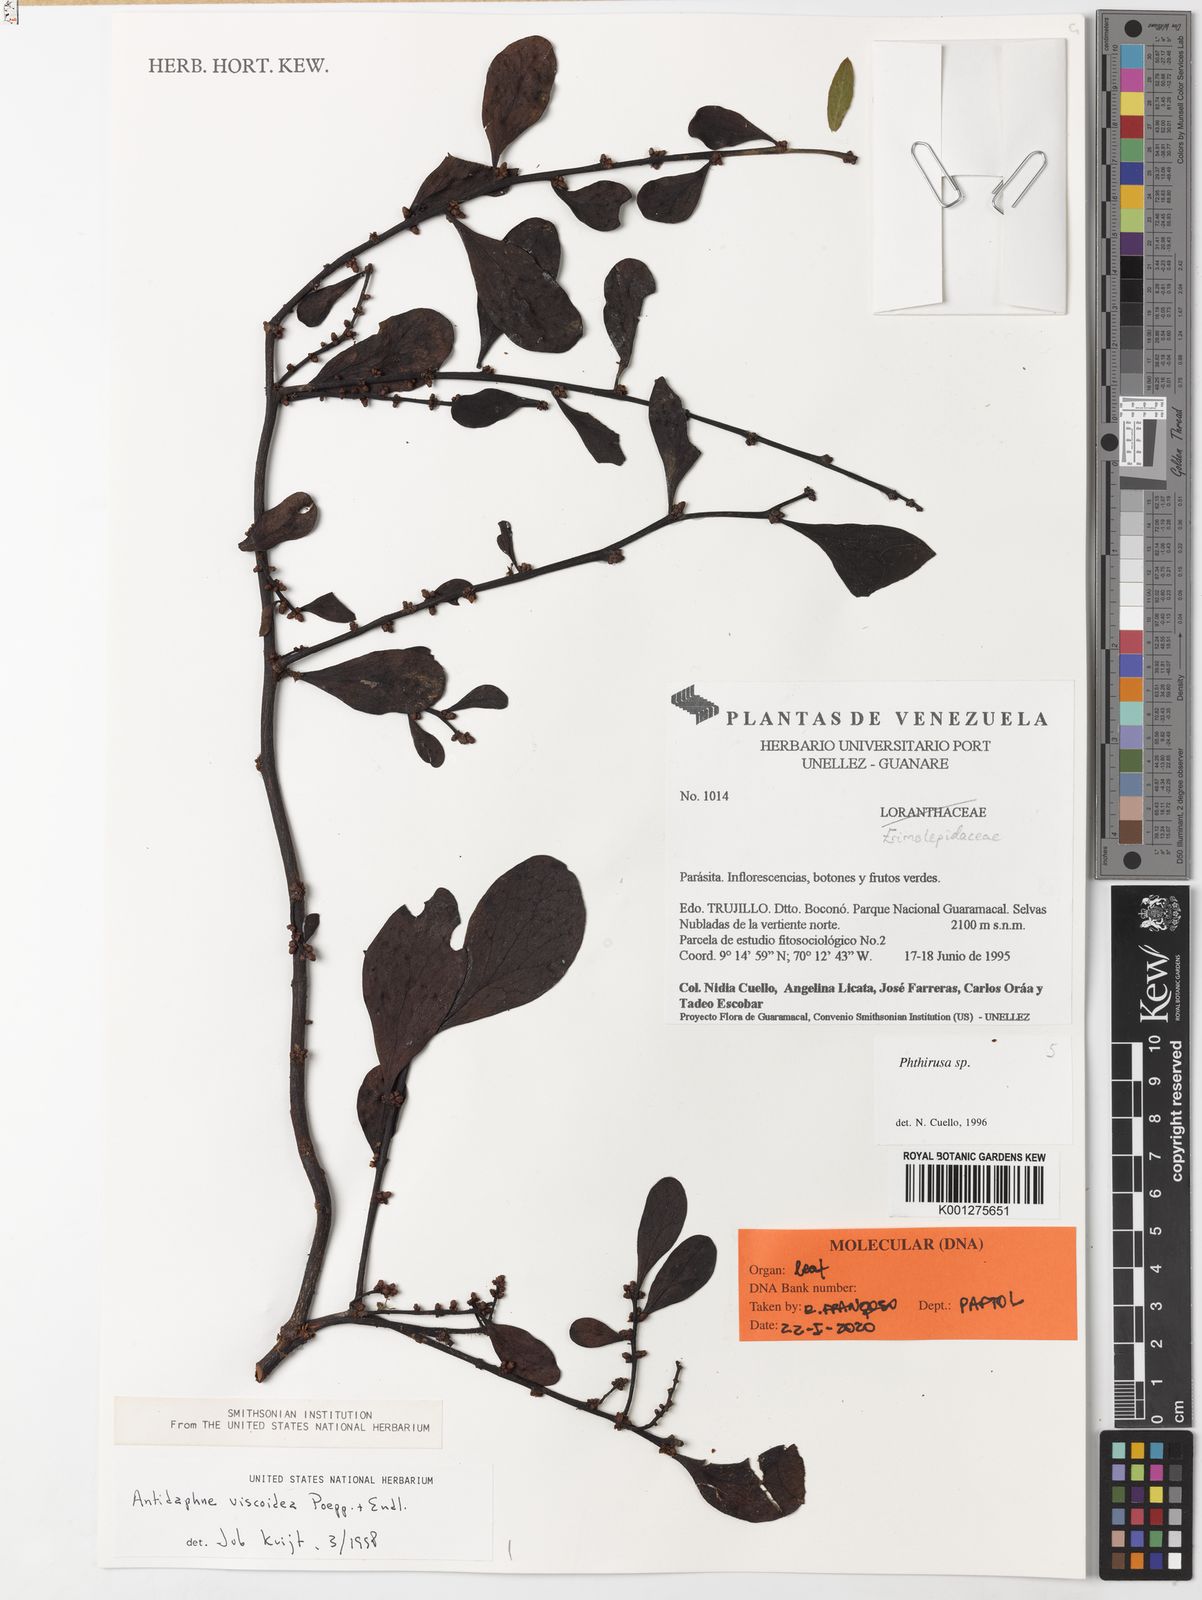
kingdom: Plantae
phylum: Tracheophyta
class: Magnoliopsida
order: Santalales
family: Santalaceae
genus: Antidaphne
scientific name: Antidaphne viscoidea
